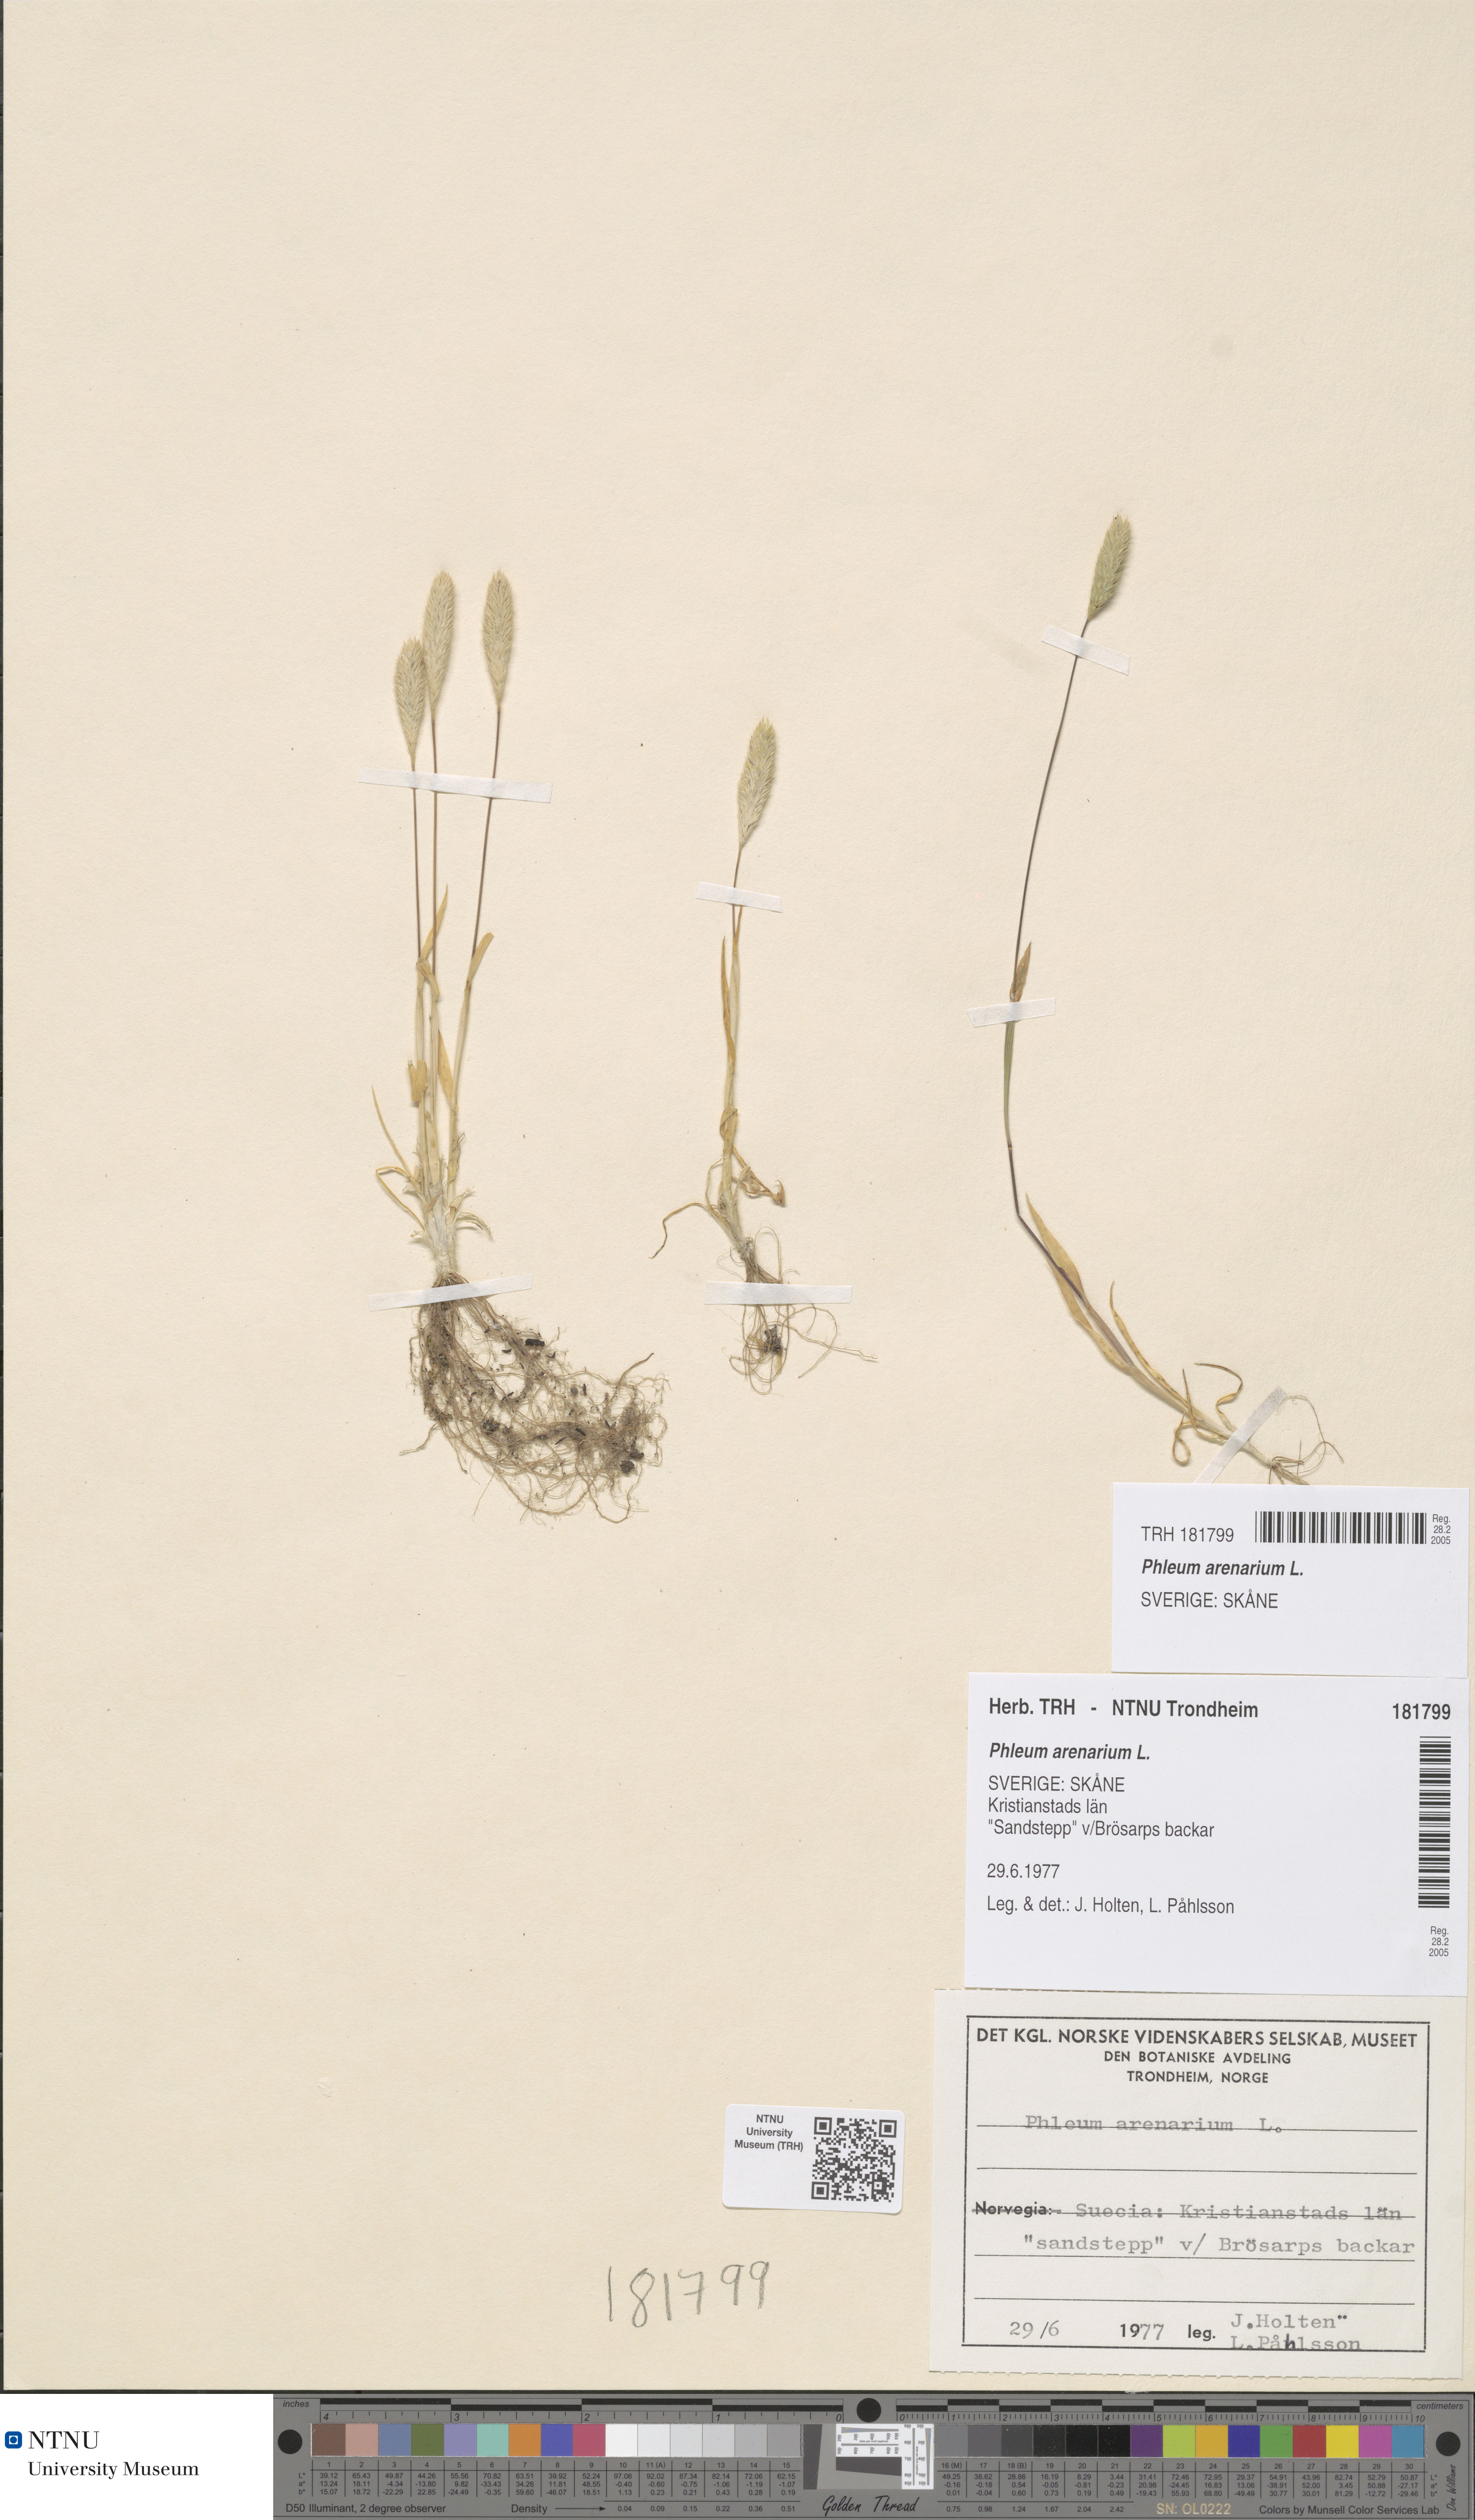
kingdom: Plantae
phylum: Tracheophyta
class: Liliopsida
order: Poales
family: Poaceae
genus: Phleum
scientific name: Phleum arenarium
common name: Sand cat's-tail
